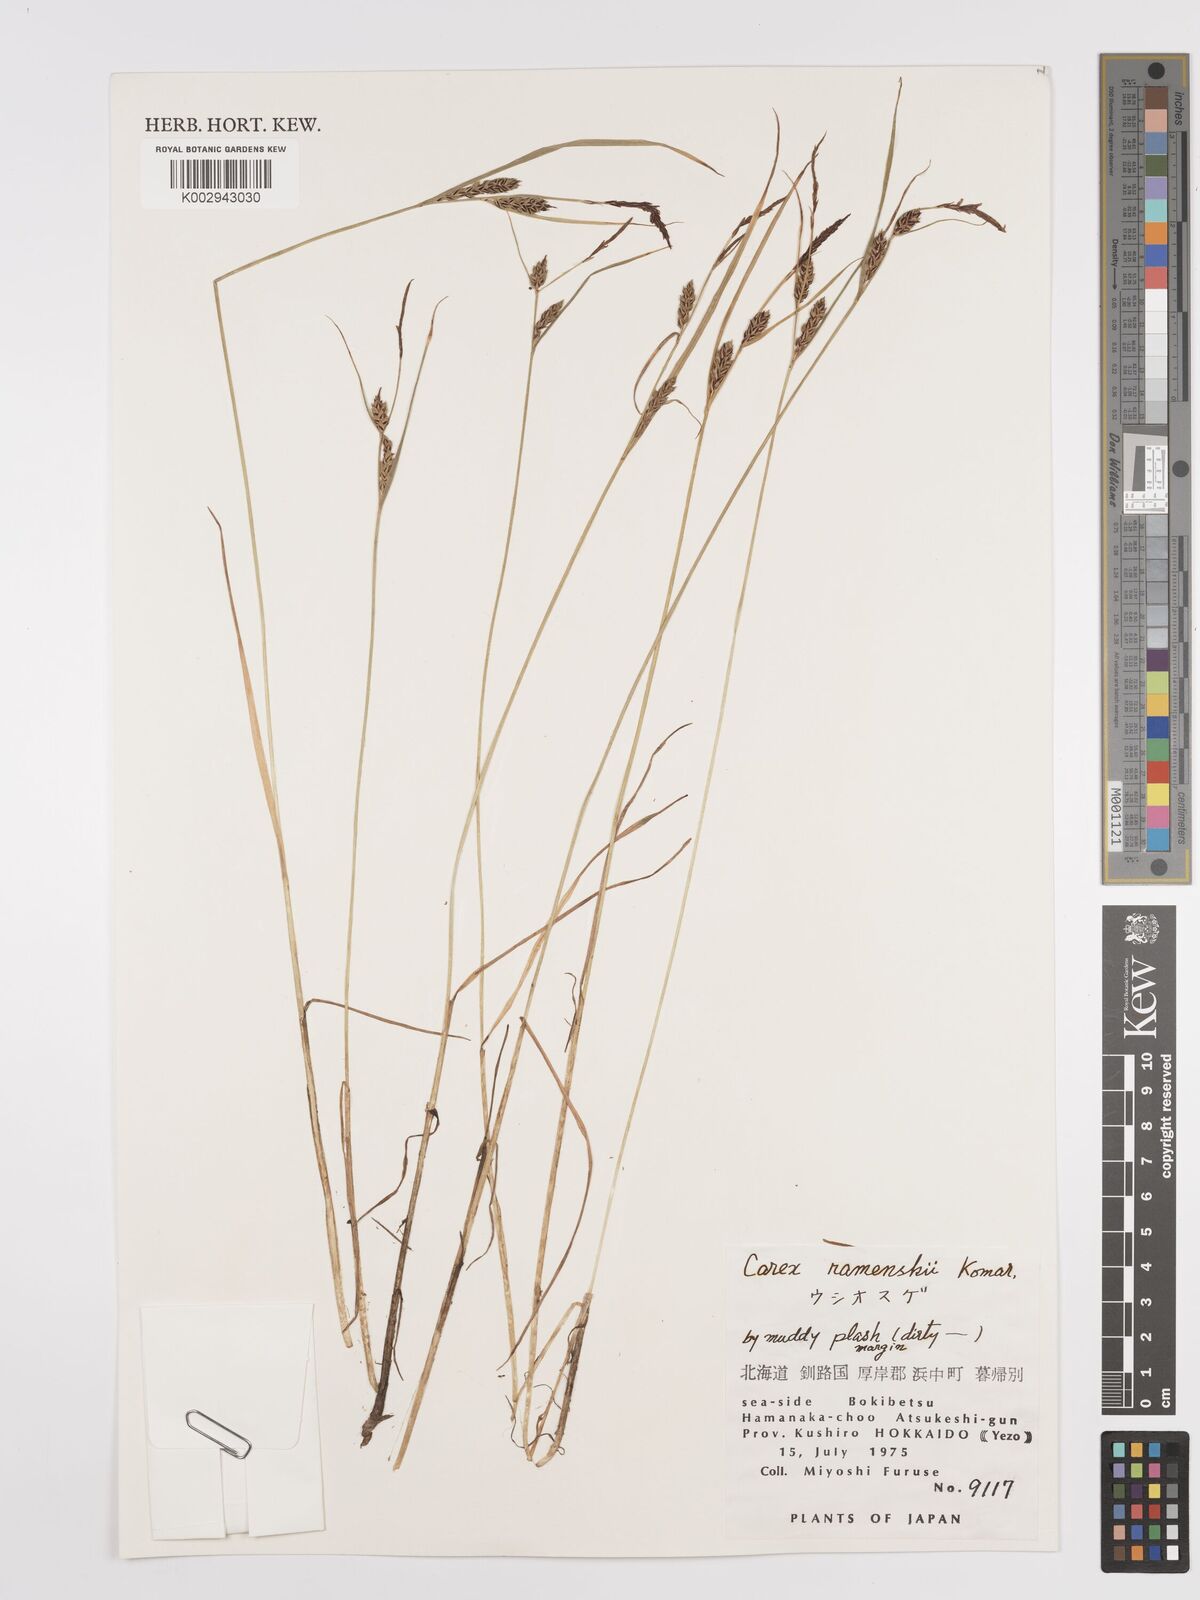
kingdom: Plantae
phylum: Tracheophyta
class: Liliopsida
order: Poales
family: Cyperaceae
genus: Carex
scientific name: Carex ramenskii
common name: Ramensk's sedge
